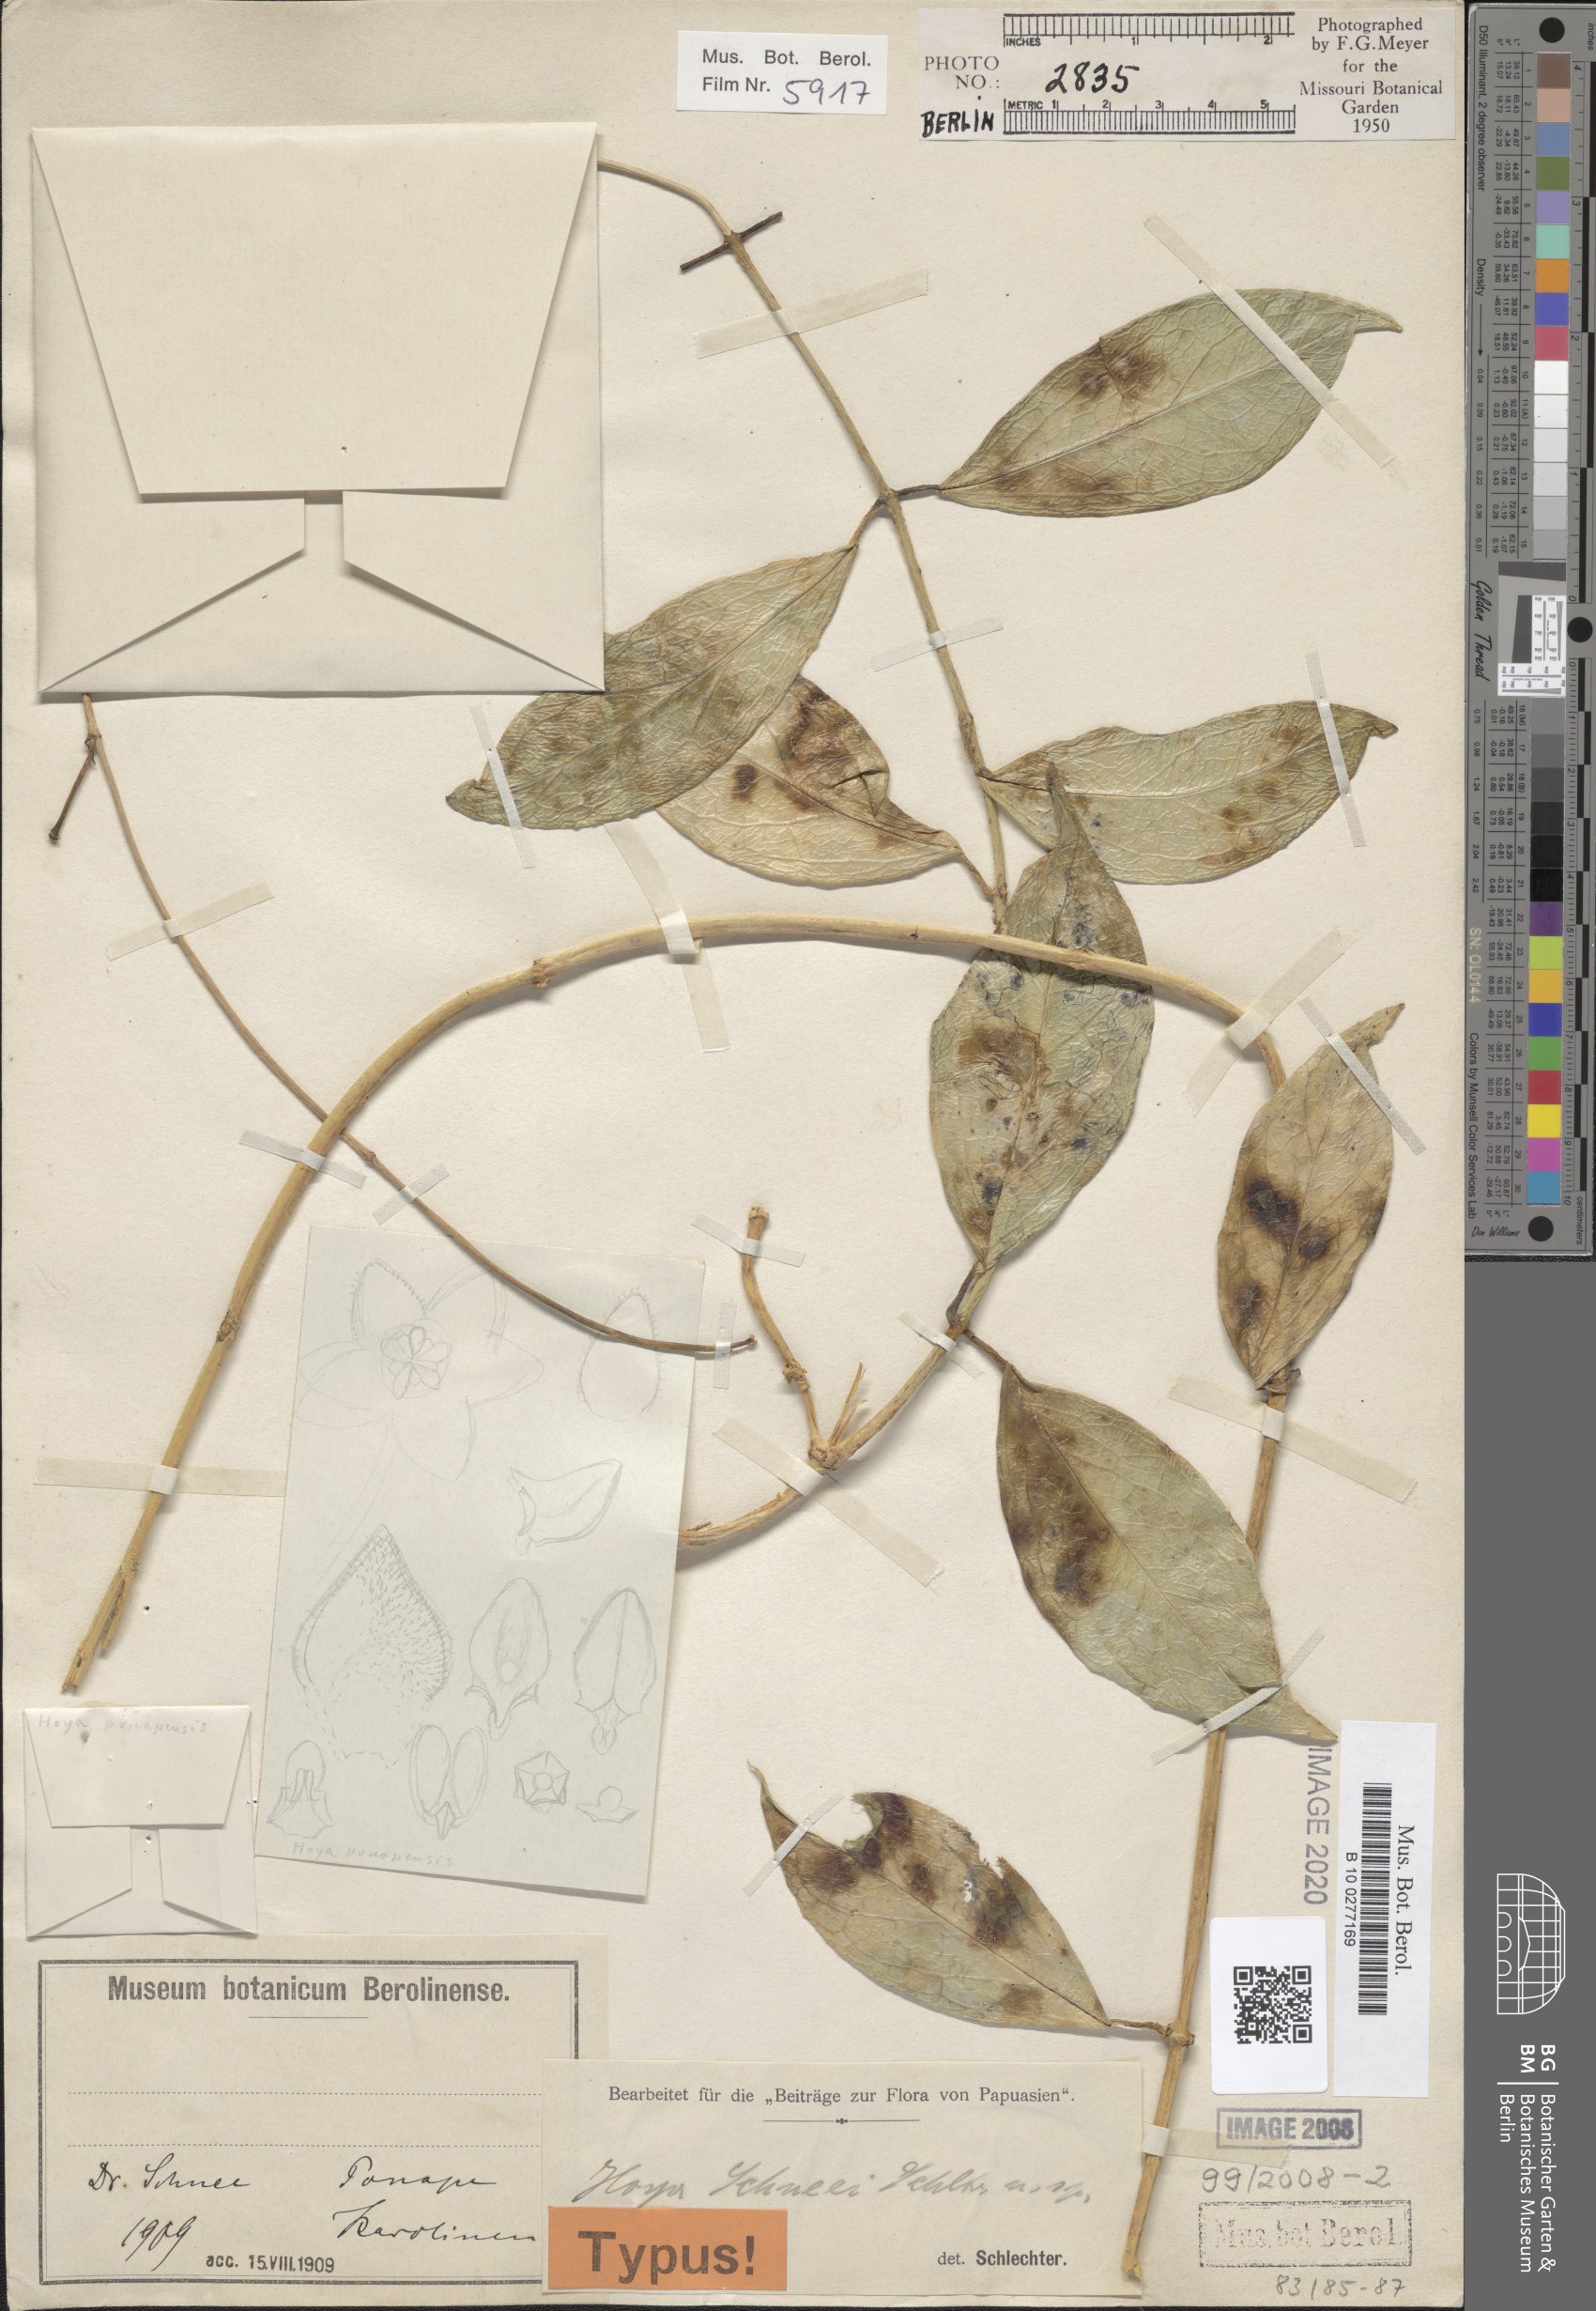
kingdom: Plantae
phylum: Tracheophyta
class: Magnoliopsida
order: Gentianales
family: Apocynaceae
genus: Hoya
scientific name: Hoya schneei
